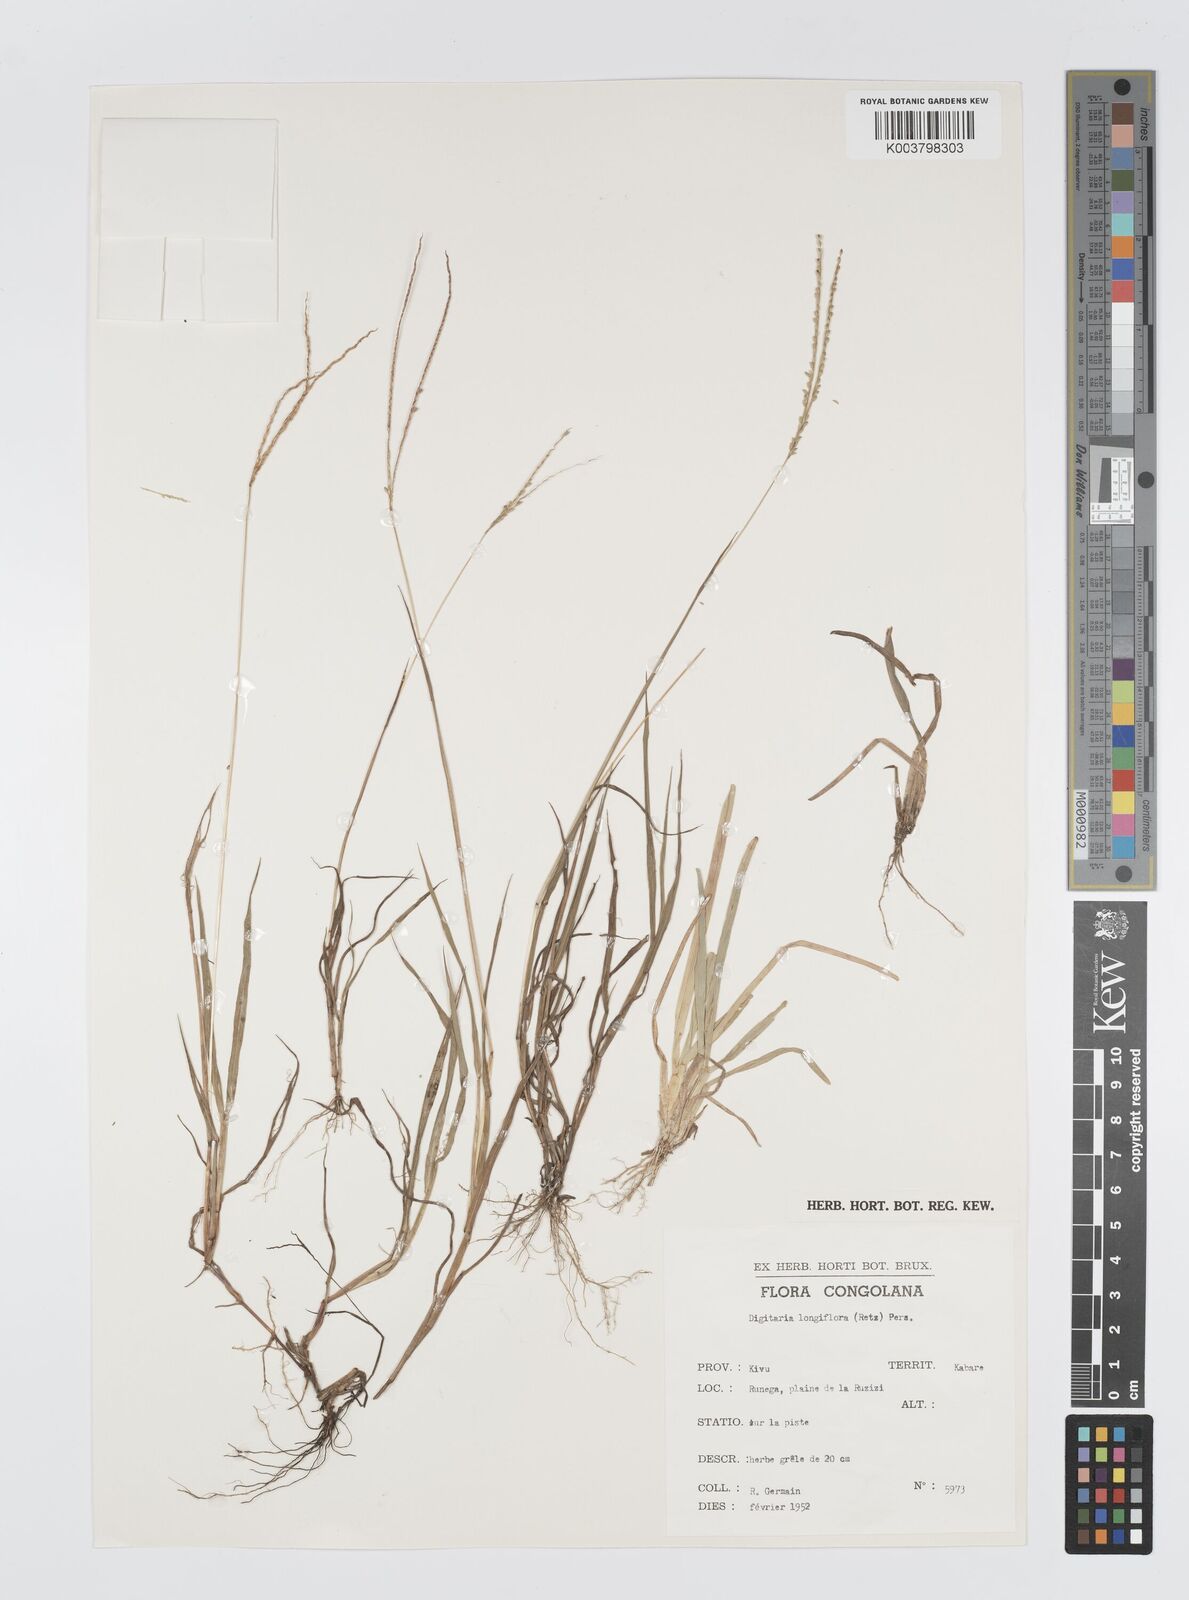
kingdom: Plantae
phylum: Tracheophyta
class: Liliopsida
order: Poales
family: Poaceae
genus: Digitaria
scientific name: Digitaria longiflora
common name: Wire crabgrass
